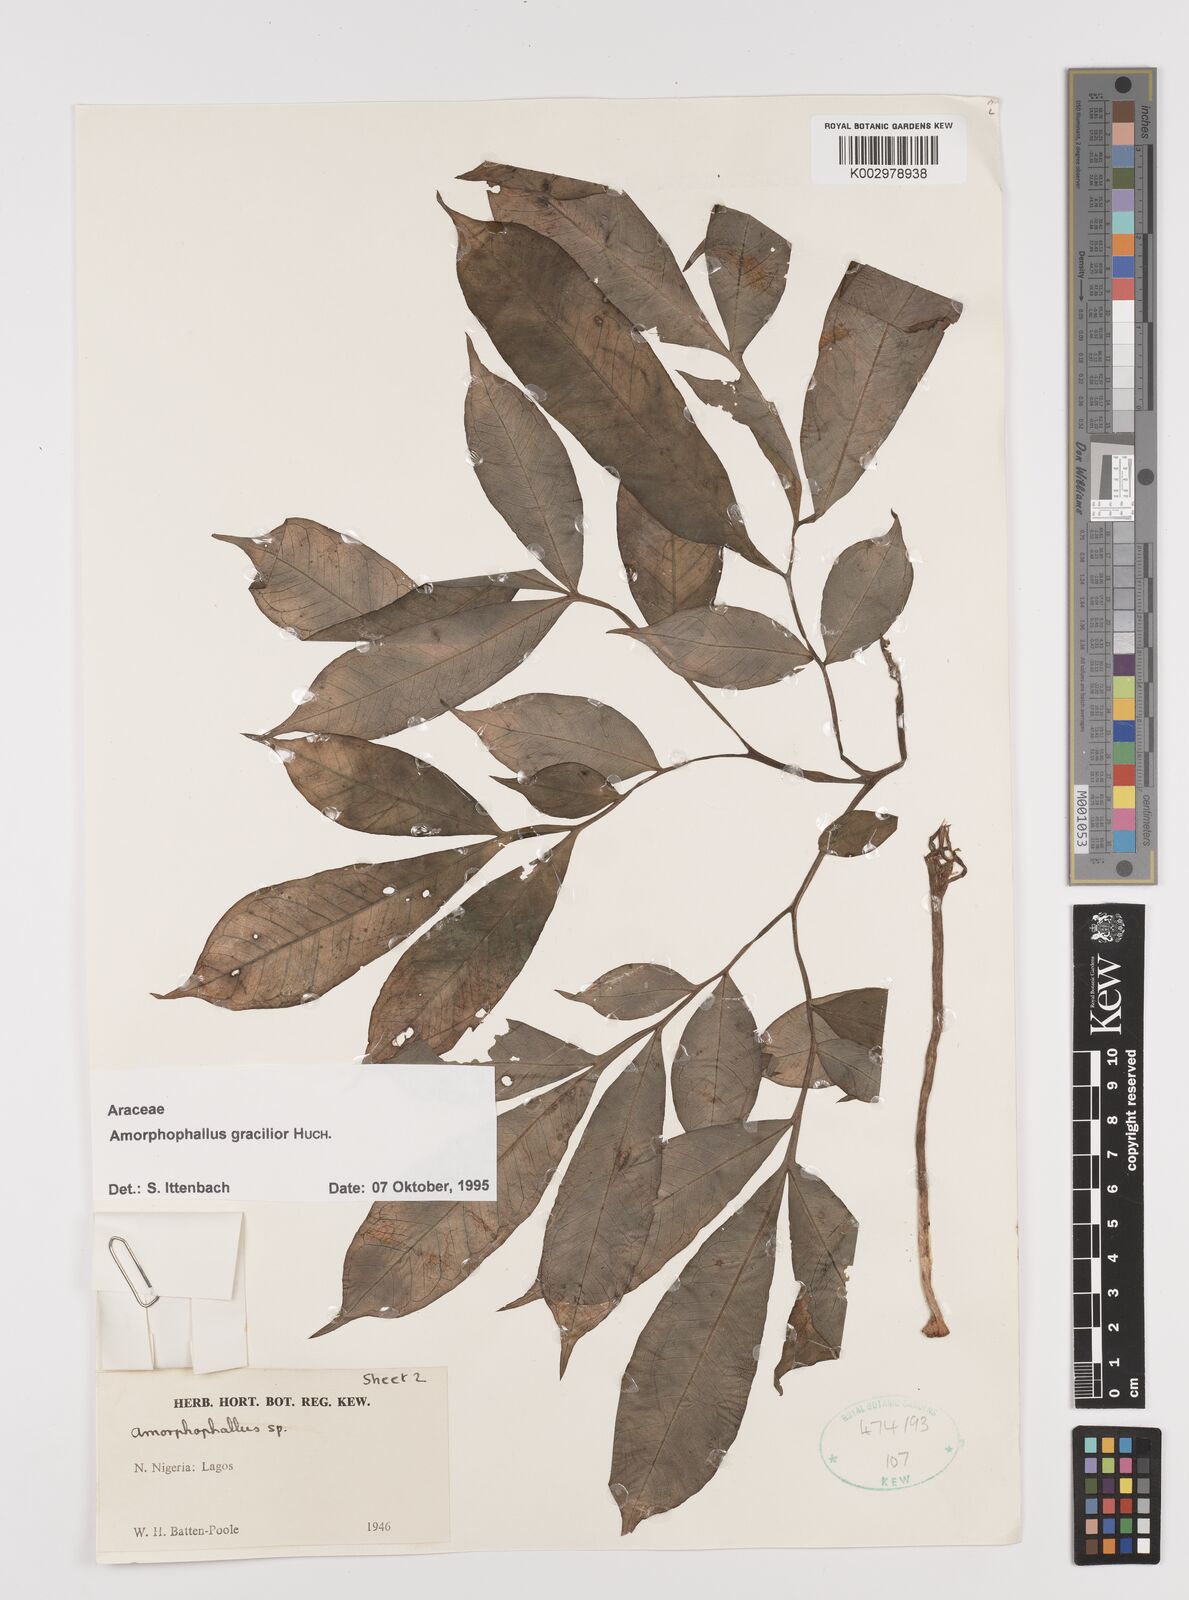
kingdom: Plantae
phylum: Tracheophyta
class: Liliopsida
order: Alismatales
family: Araceae
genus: Amorphophallus
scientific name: Amorphophallus gracilior
